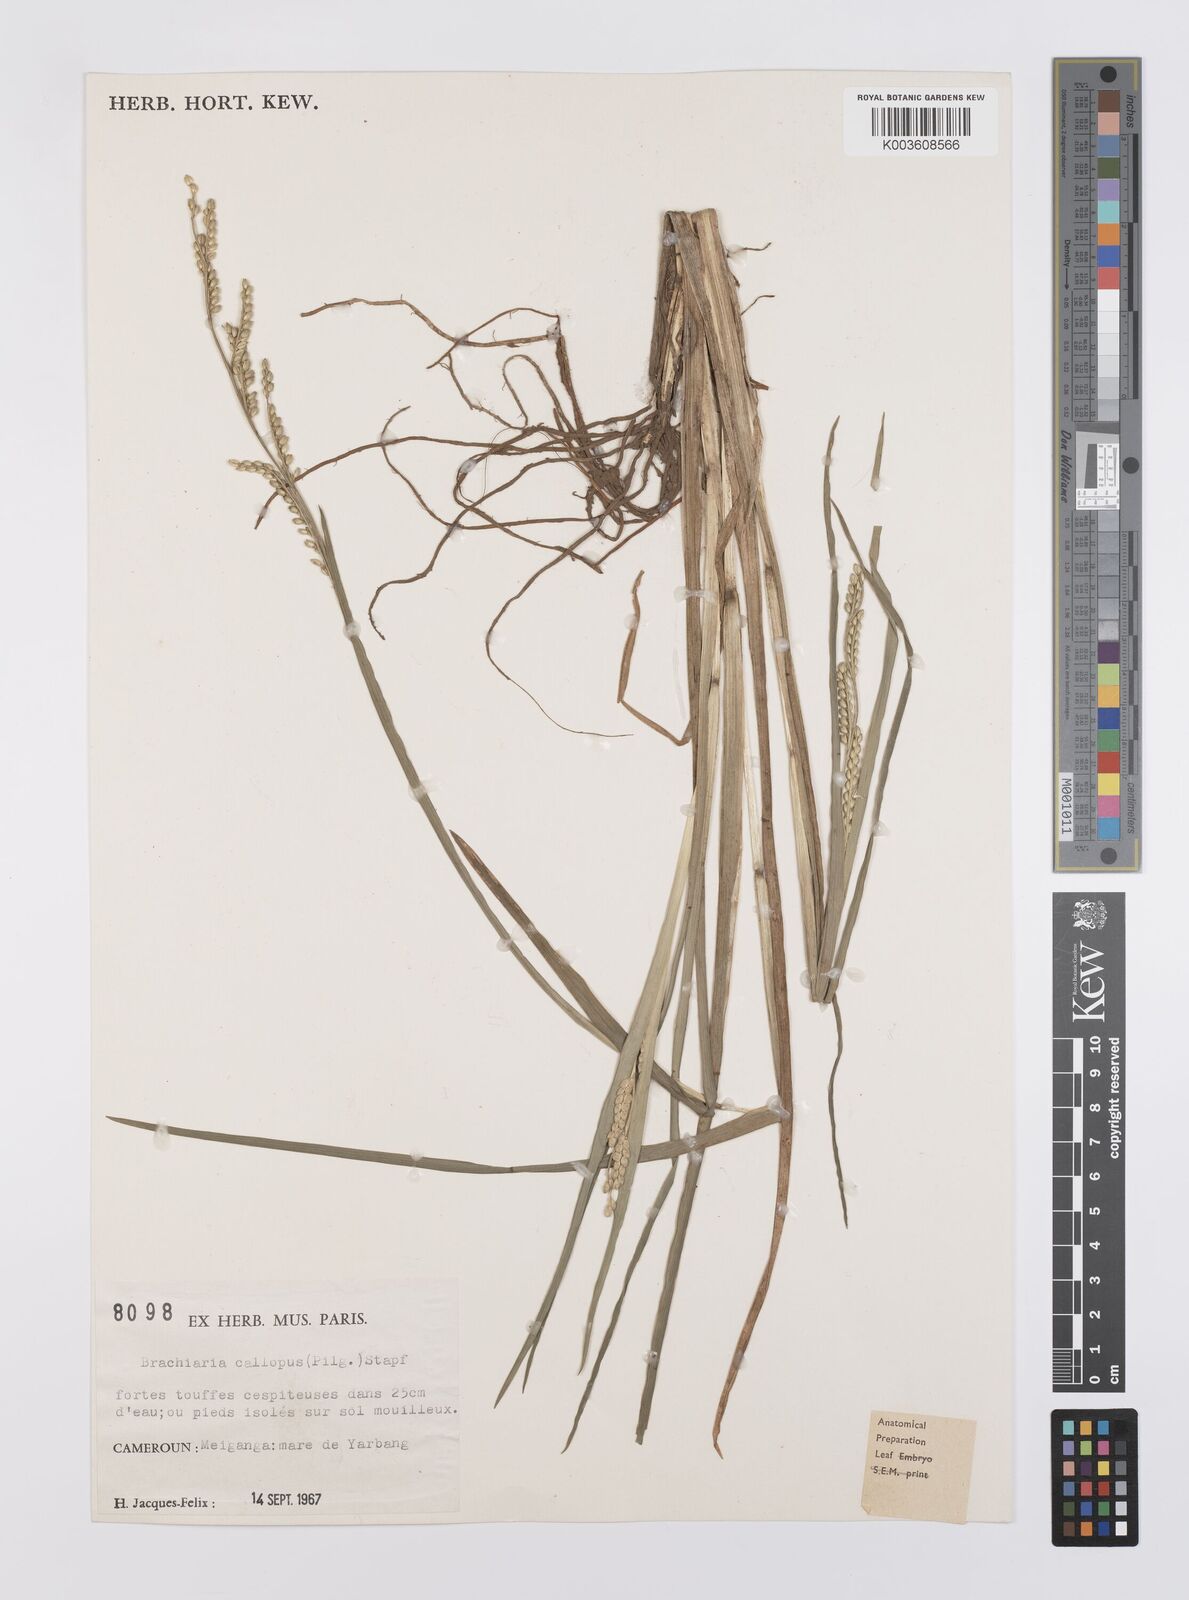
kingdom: Plantae
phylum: Tracheophyta
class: Liliopsida
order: Poales
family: Poaceae
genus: Echinochloa
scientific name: Echinochloa callopus
